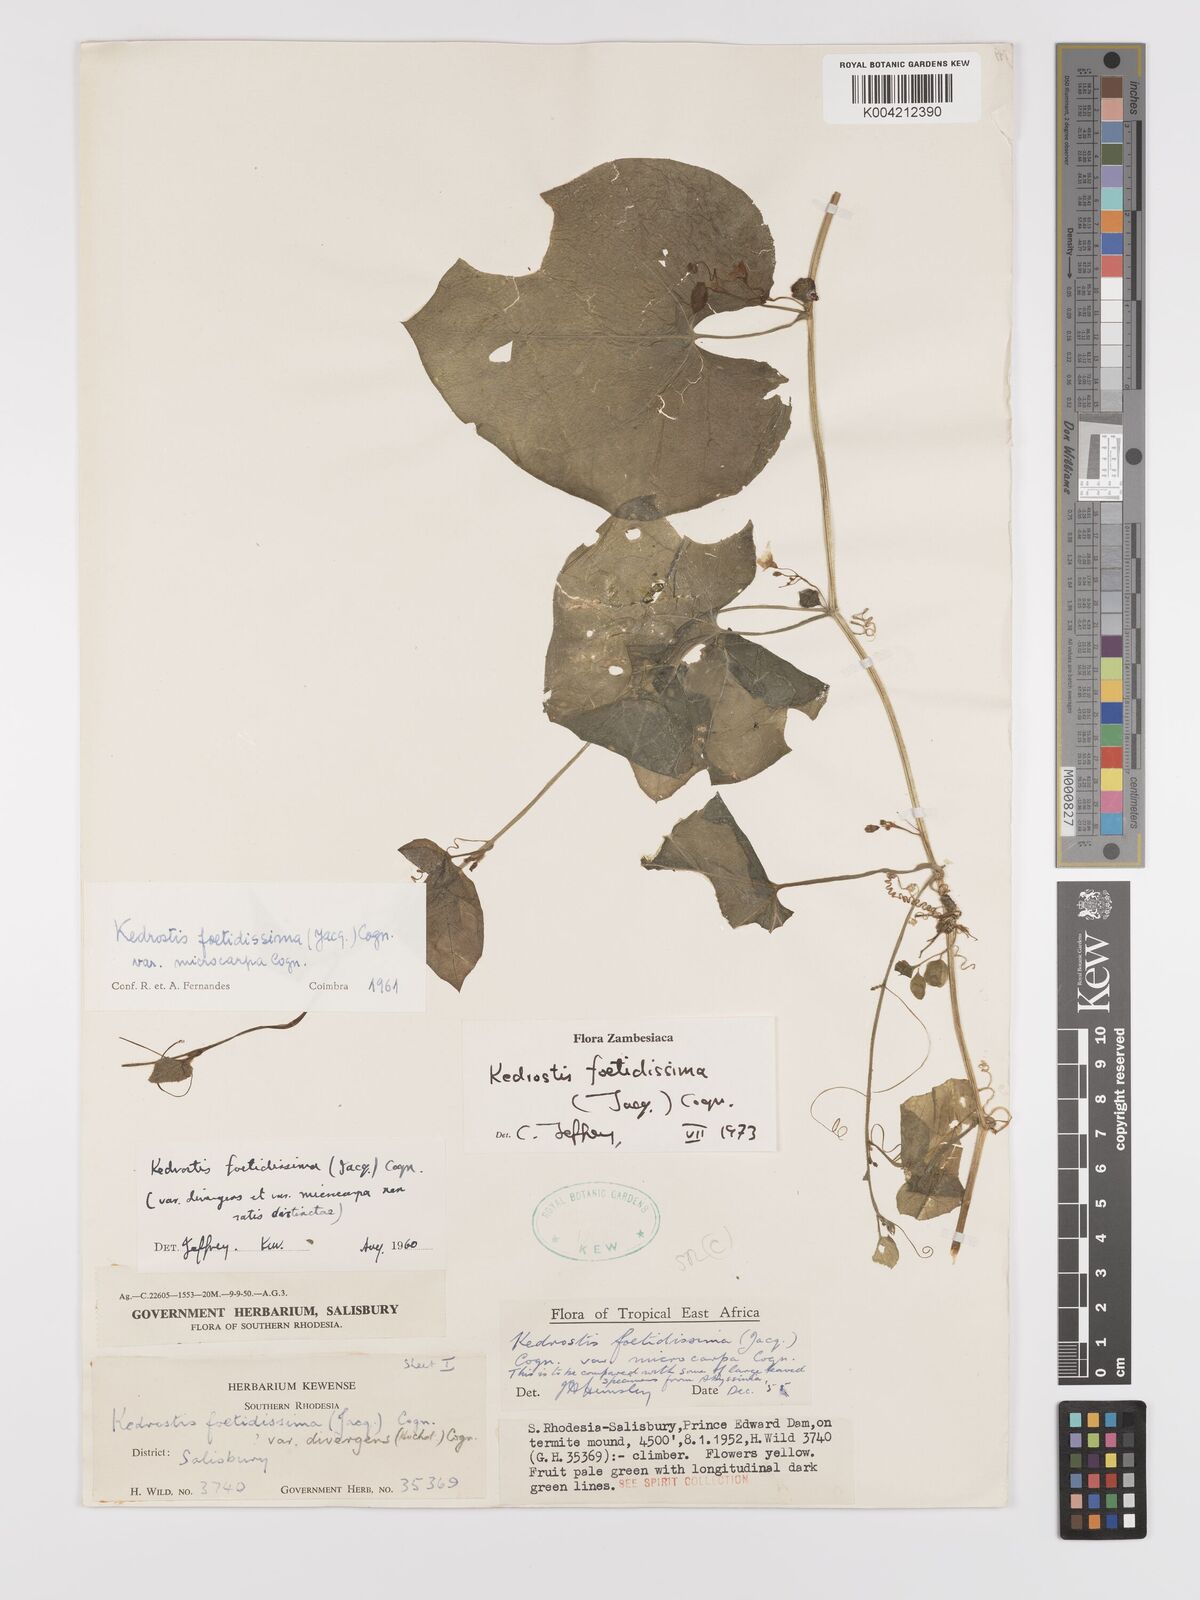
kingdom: Plantae
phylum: Tracheophyta
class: Magnoliopsida
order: Cucurbitales
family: Cucurbitaceae
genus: Kedrostis
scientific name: Kedrostis foetidissima
